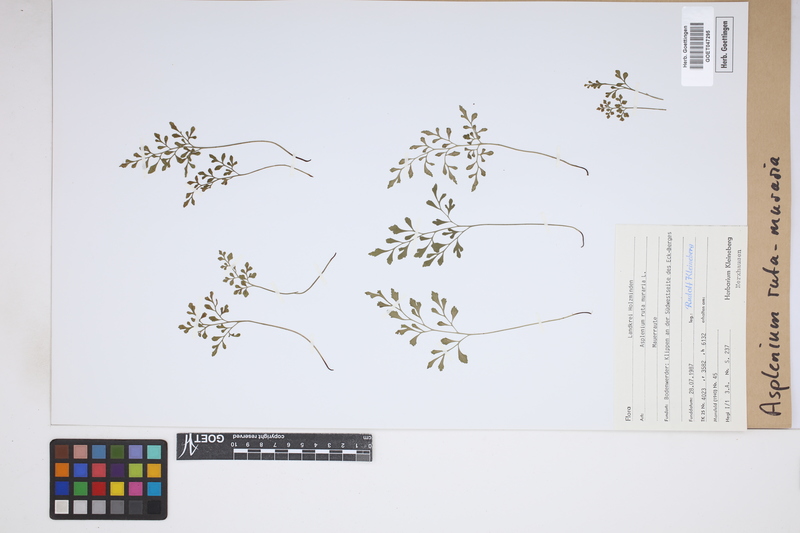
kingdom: Plantae
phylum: Tracheophyta
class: Polypodiopsida
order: Polypodiales
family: Aspleniaceae
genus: Asplenium
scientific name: Asplenium ruta-muraria
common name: Wall-rue
